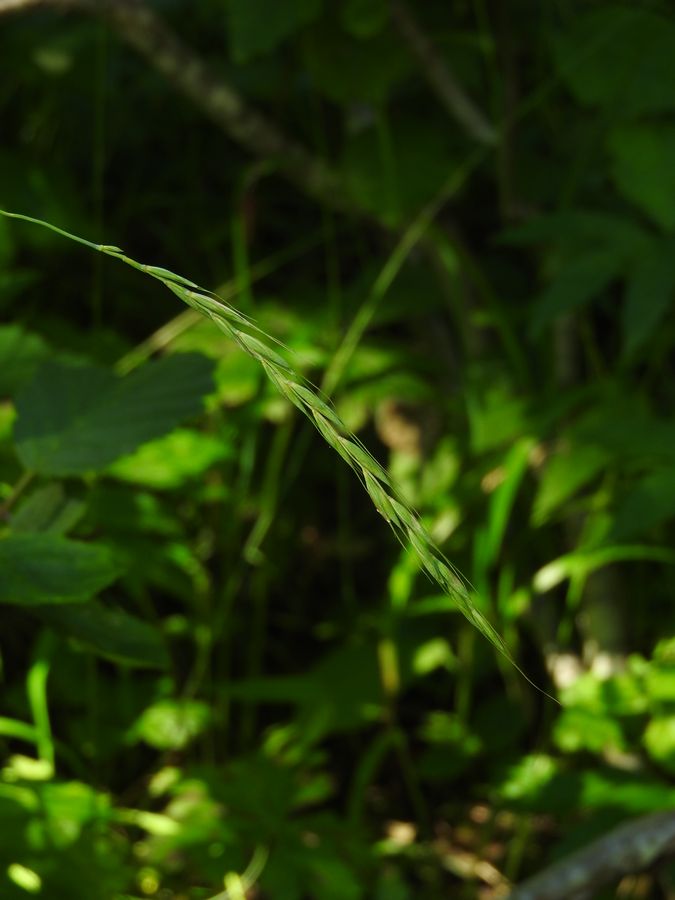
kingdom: Plantae
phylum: Tracheophyta
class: Liliopsida
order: Poales
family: Poaceae
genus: Elymus
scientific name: Elymus caninus
